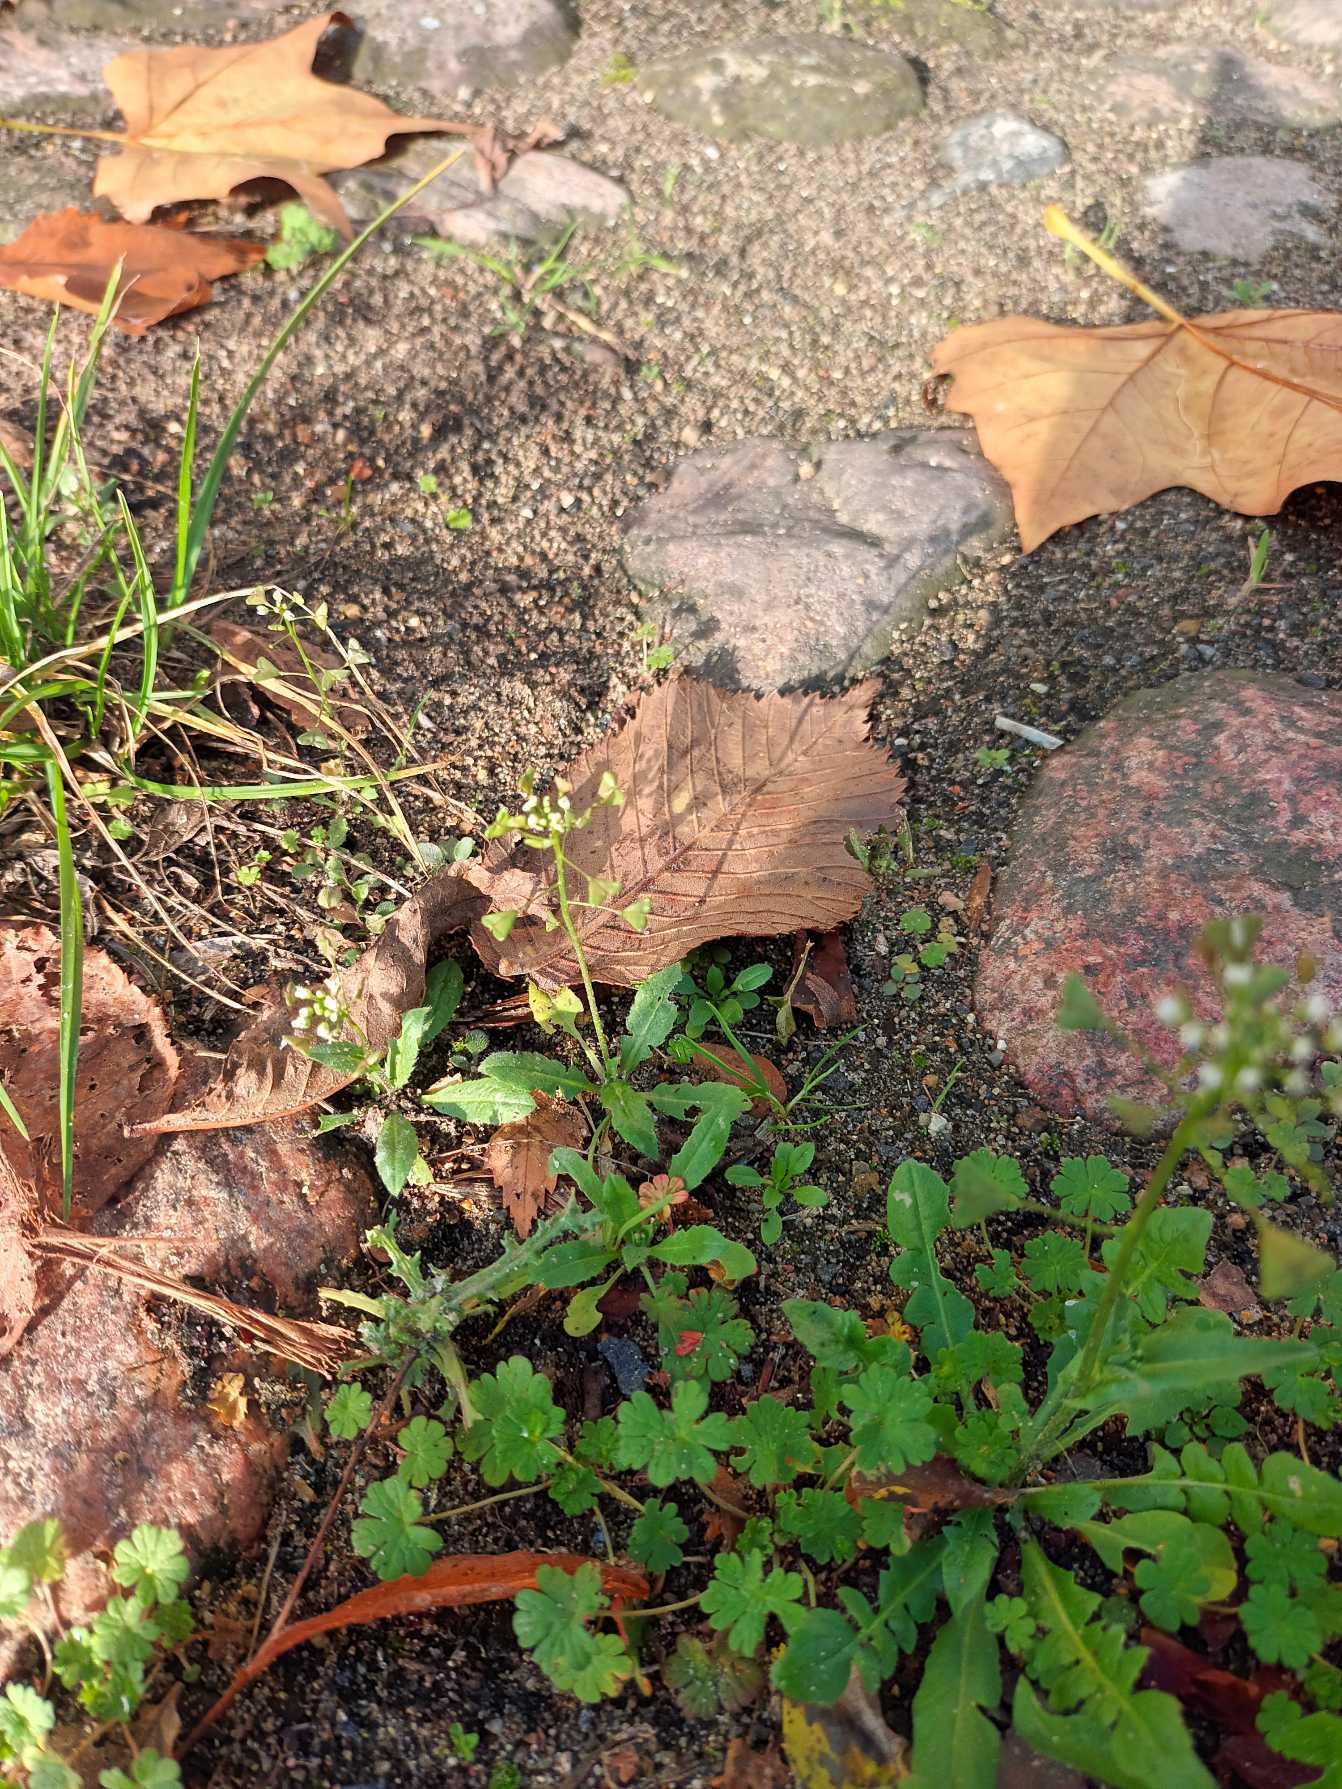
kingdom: Plantae
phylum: Tracheophyta
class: Magnoliopsida
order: Brassicales
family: Brassicaceae
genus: Capsella
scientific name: Capsella bursa-pastoris
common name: Hyrdetaske
